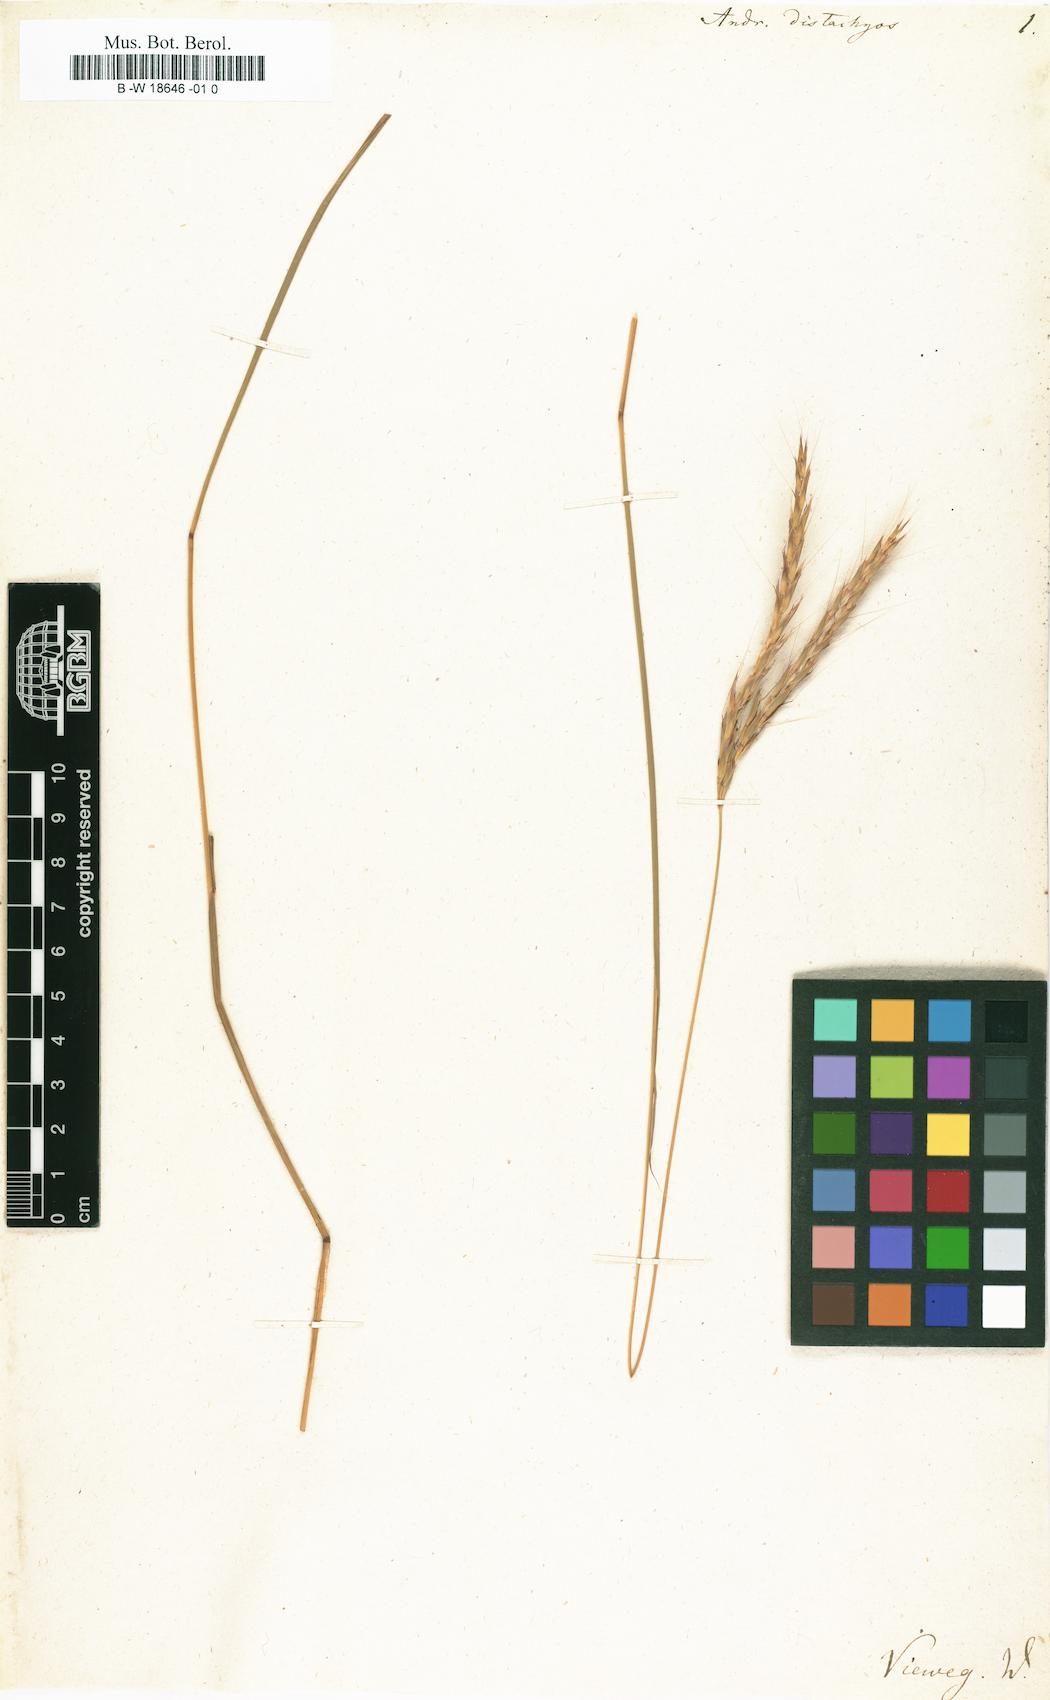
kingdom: Plantae
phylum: Tracheophyta
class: Liliopsida
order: Poales
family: Poaceae
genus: Andropogon
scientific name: Andropogon distachyos
